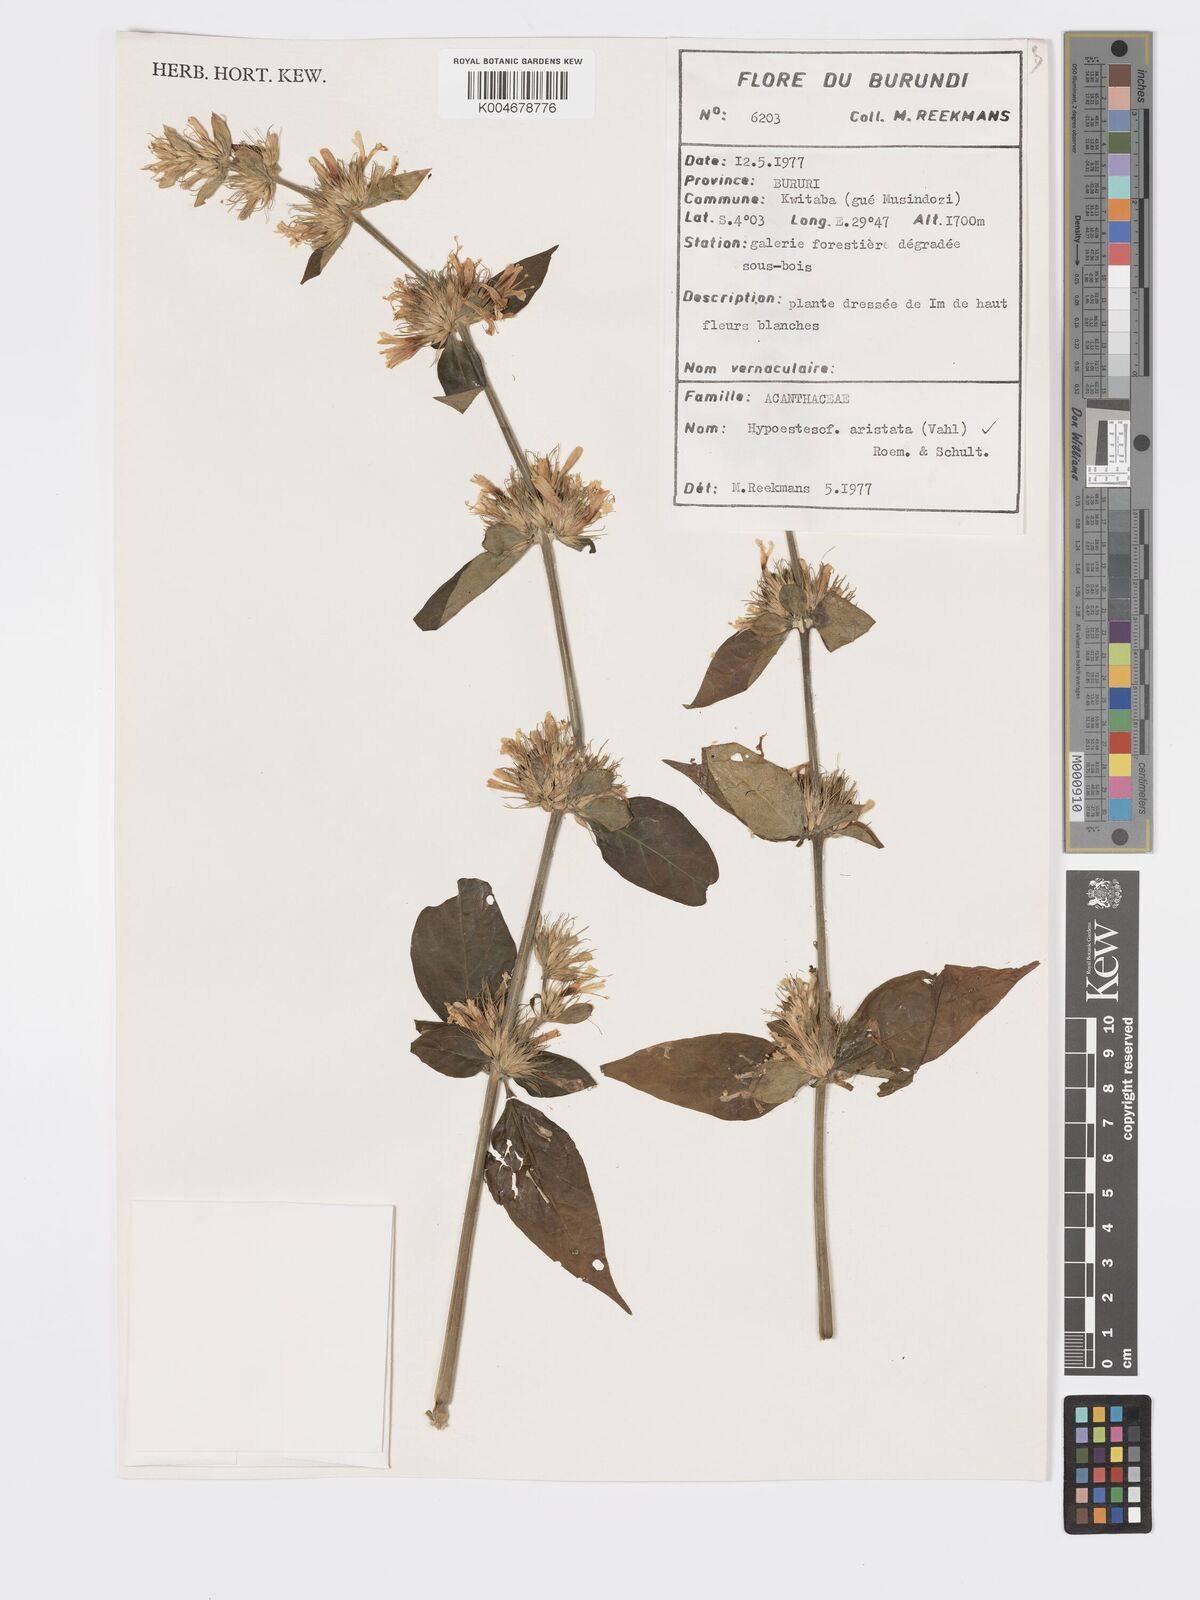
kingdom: Plantae
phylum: Tracheophyta
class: Magnoliopsida
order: Lamiales
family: Acanthaceae
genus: Hypoestes
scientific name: Hypoestes aristata
